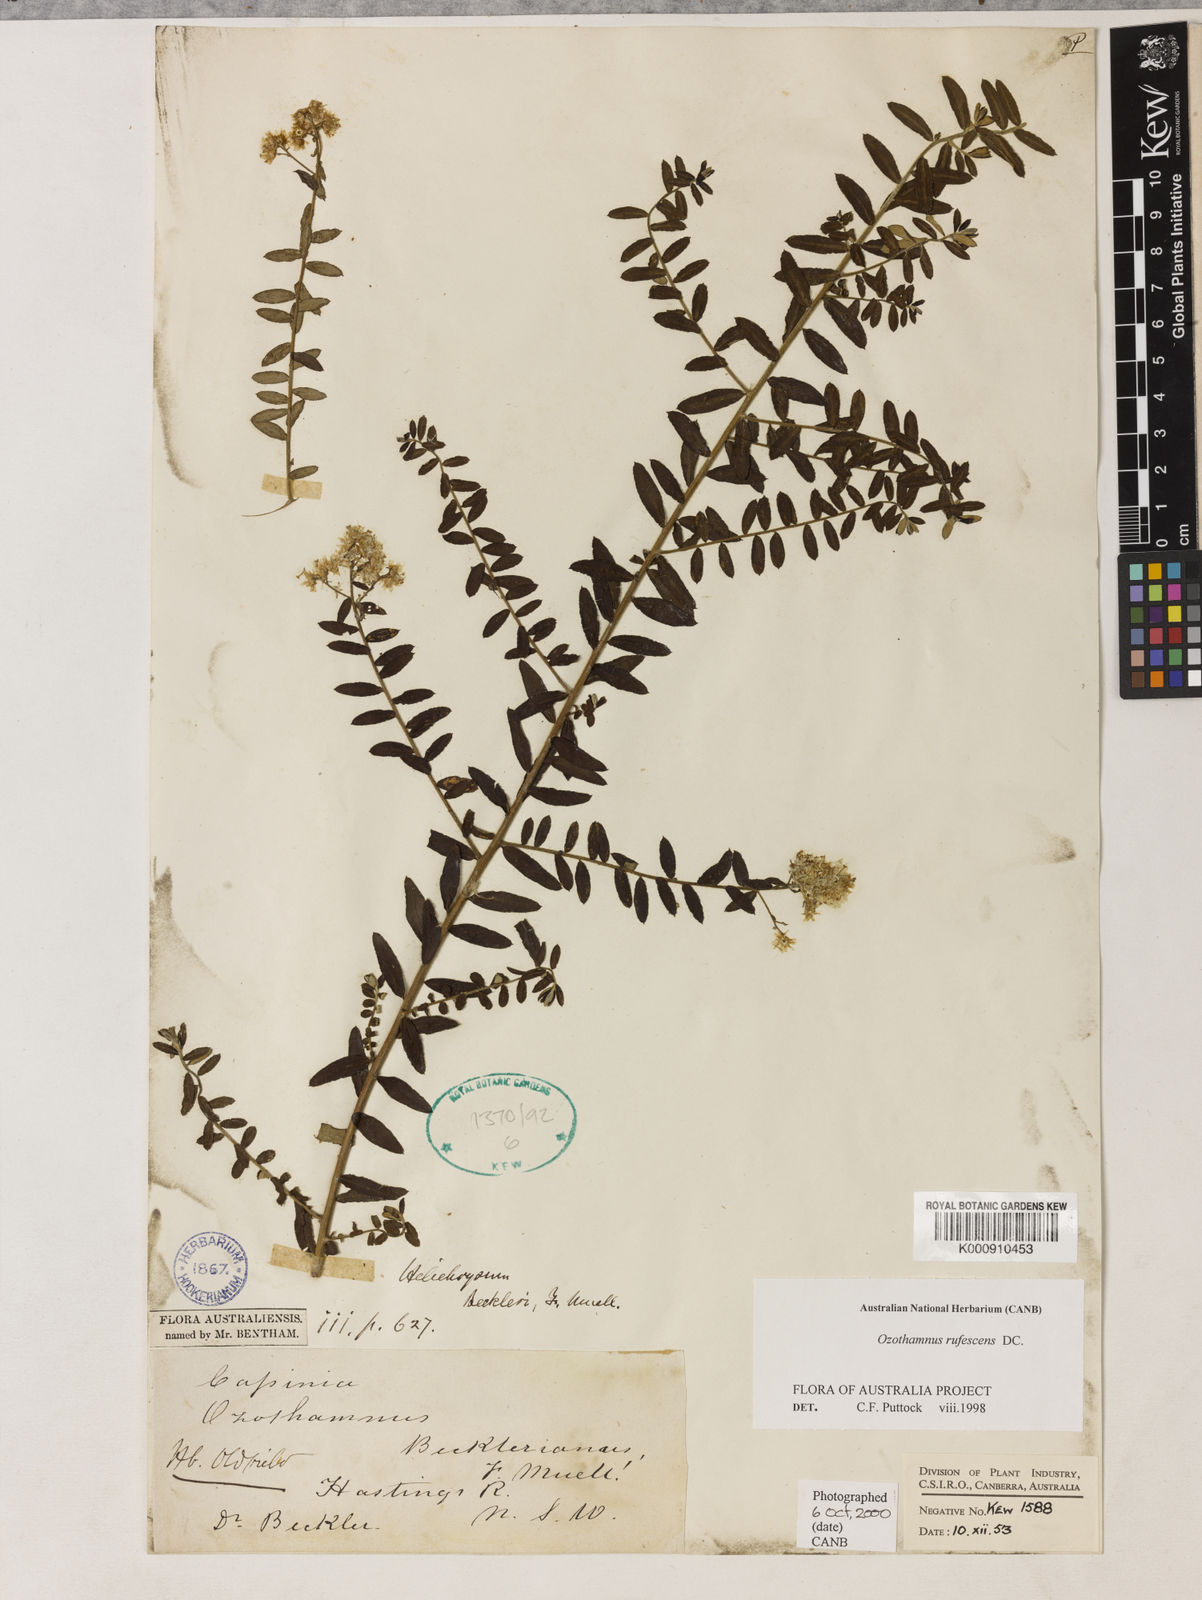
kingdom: Plantae
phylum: Tracheophyta
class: Magnoliopsida
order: Asterales
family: Asteraceae
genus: Ozothamnus
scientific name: Ozothamnus rufescens
